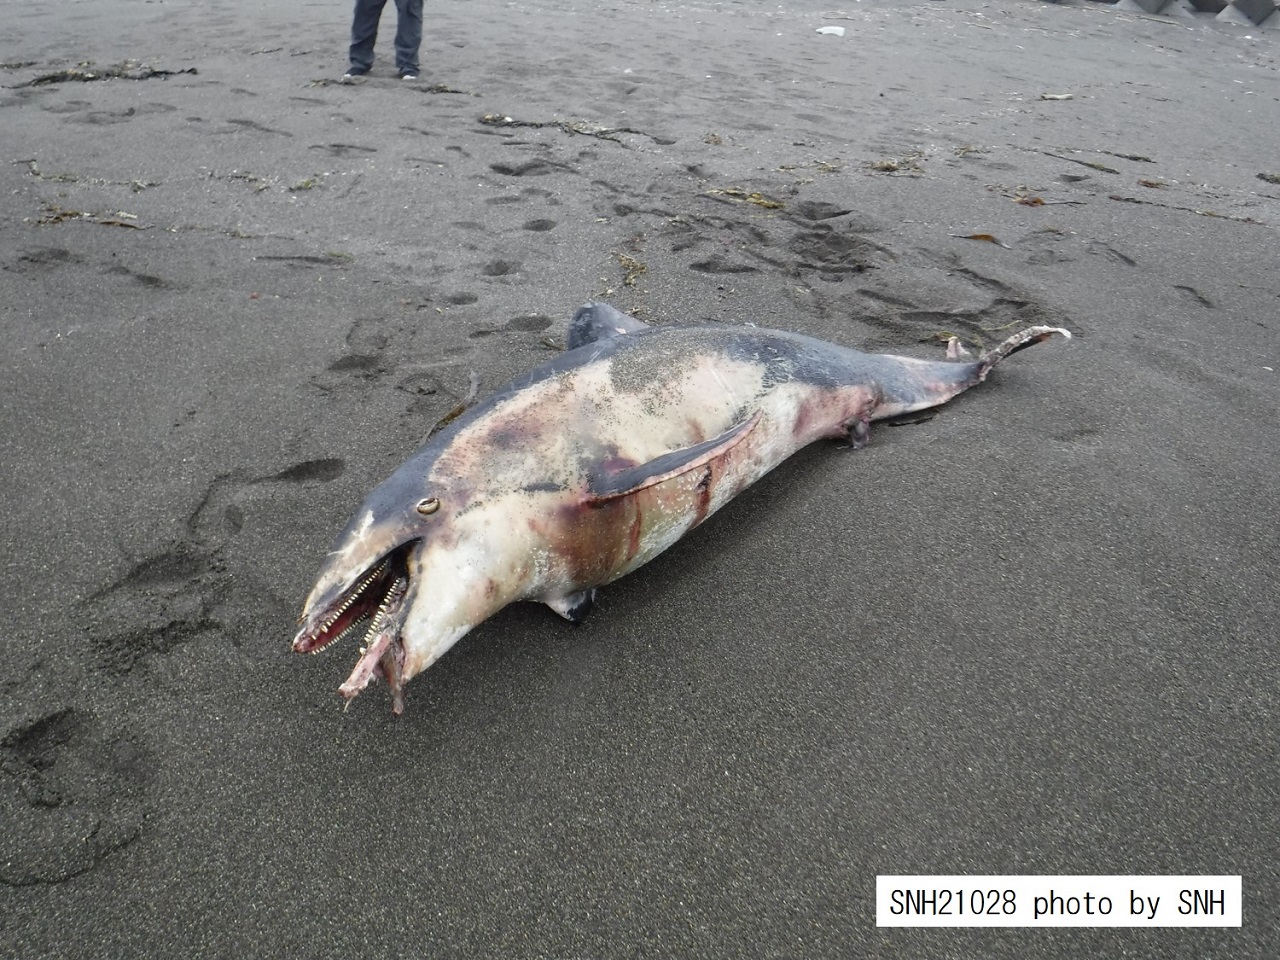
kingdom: Animalia
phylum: Chordata
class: Mammalia
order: Cetacea
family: Delphinidae
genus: Lagenorhynchus
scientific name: Lagenorhynchus obliquidens
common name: Pacific white-sided dolphin
